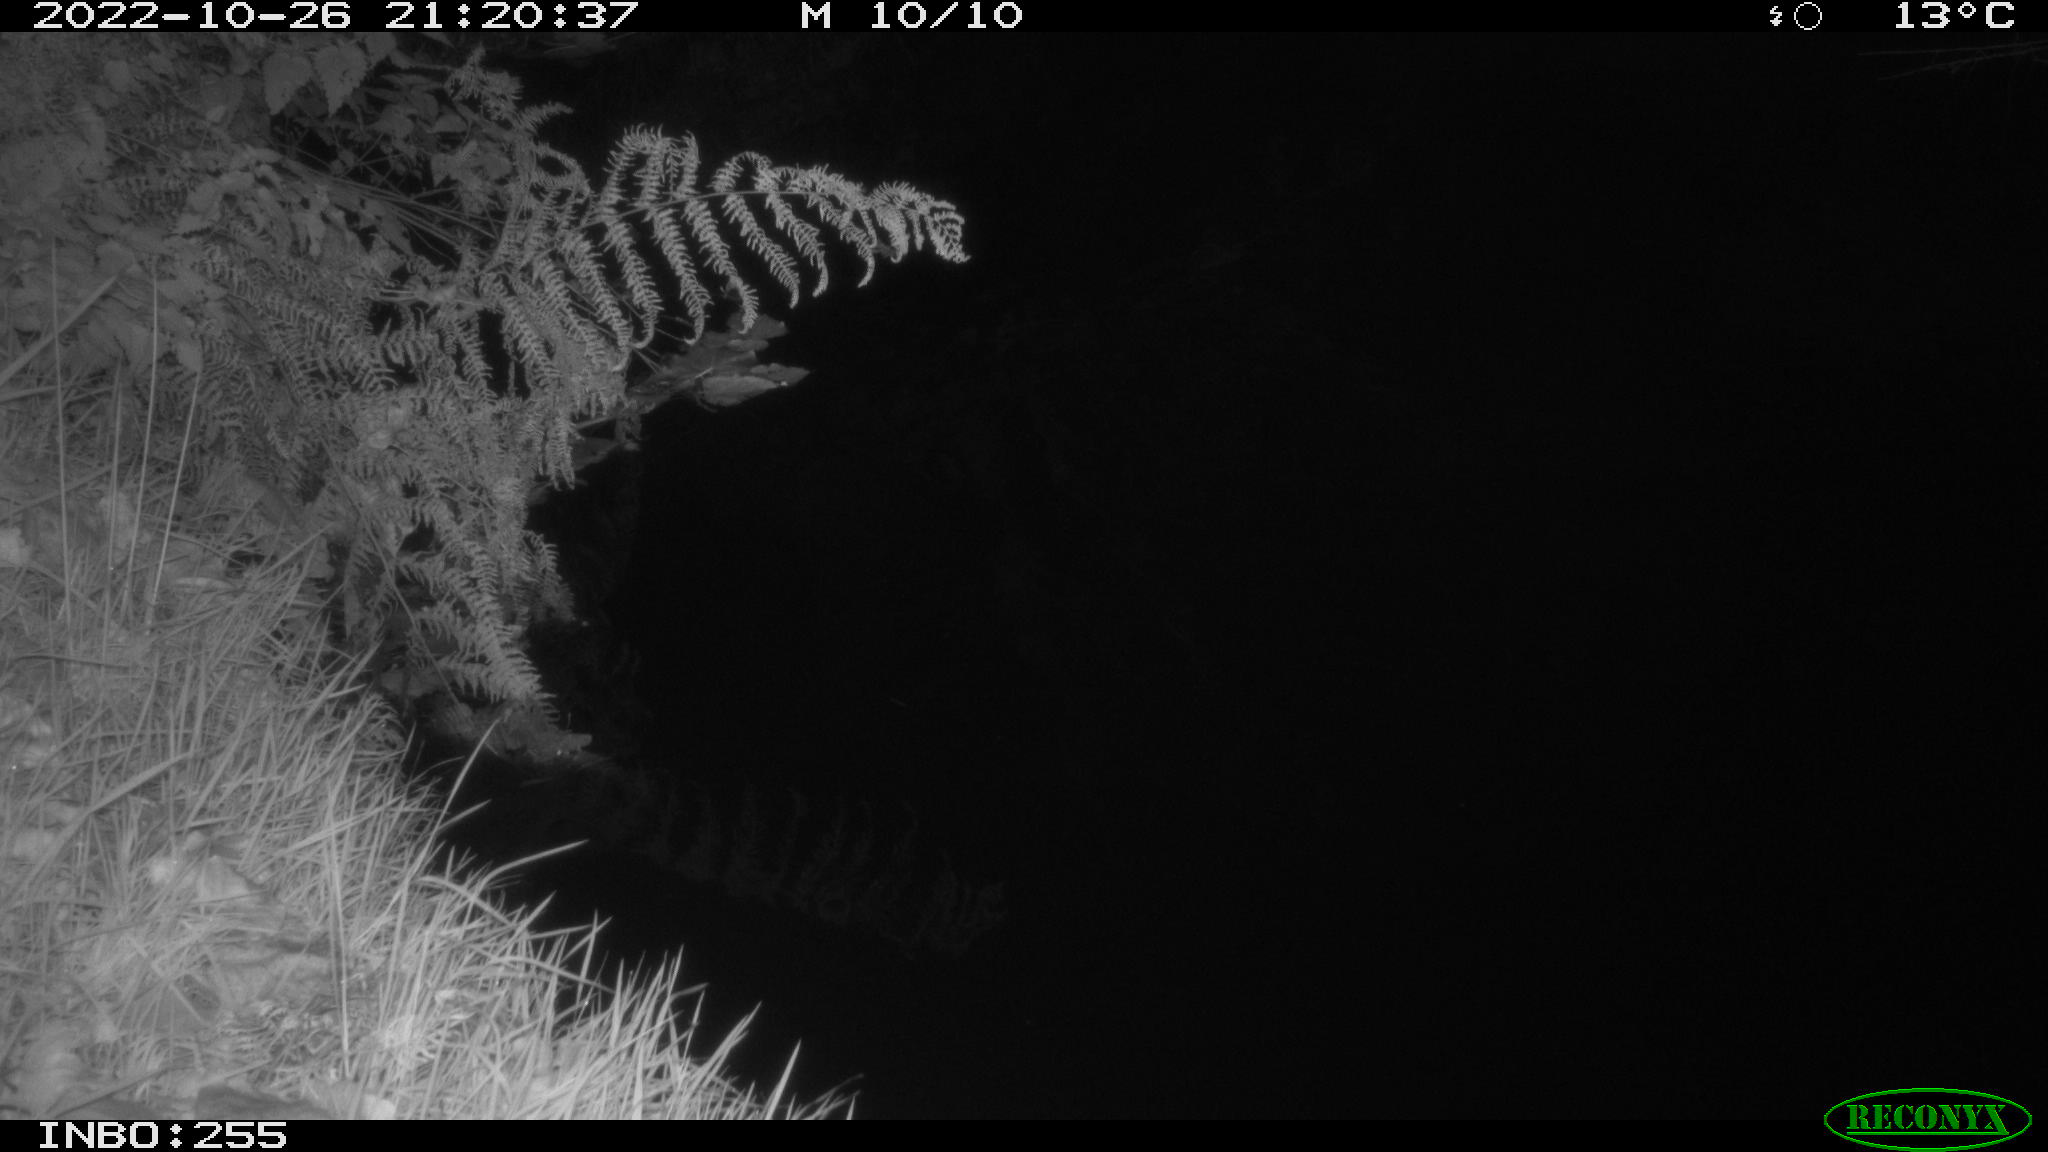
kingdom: Animalia
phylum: Chordata
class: Aves
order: Anseriformes
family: Anatidae
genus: Anas
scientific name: Anas
